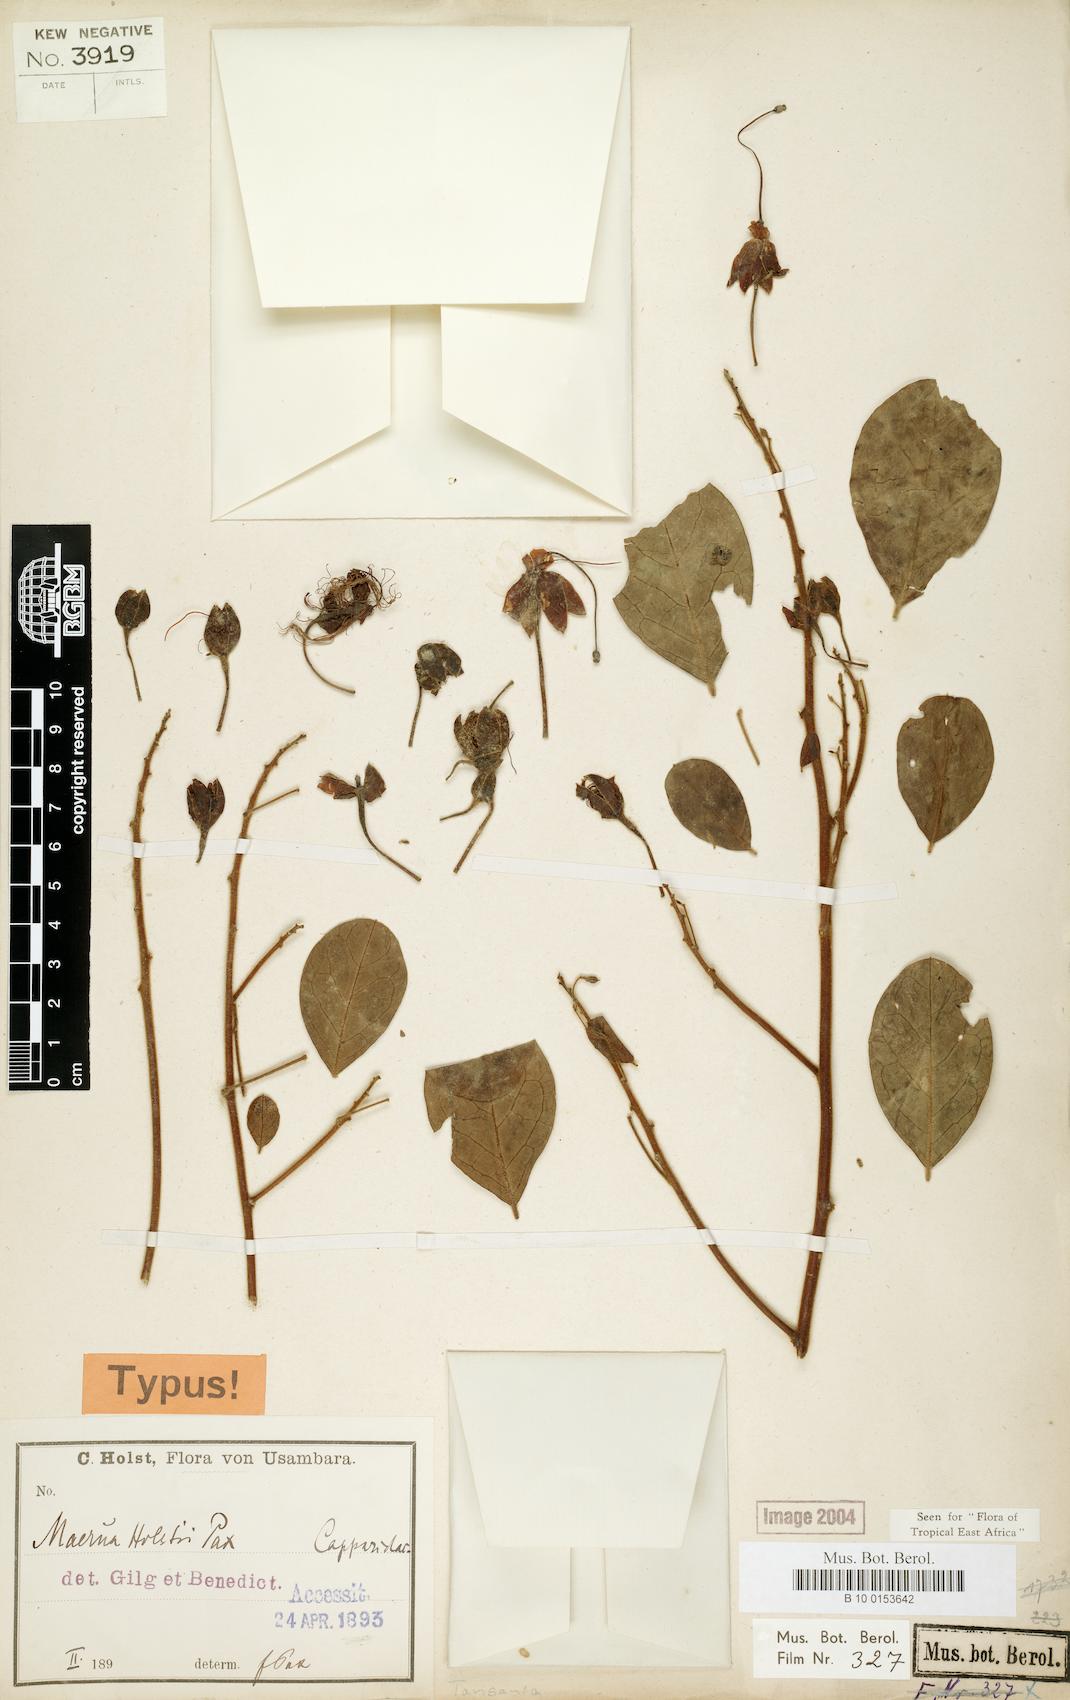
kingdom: Plantae
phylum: Tracheophyta
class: Magnoliopsida
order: Brassicales
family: Capparaceae
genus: Maerua
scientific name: Maerua holstii
